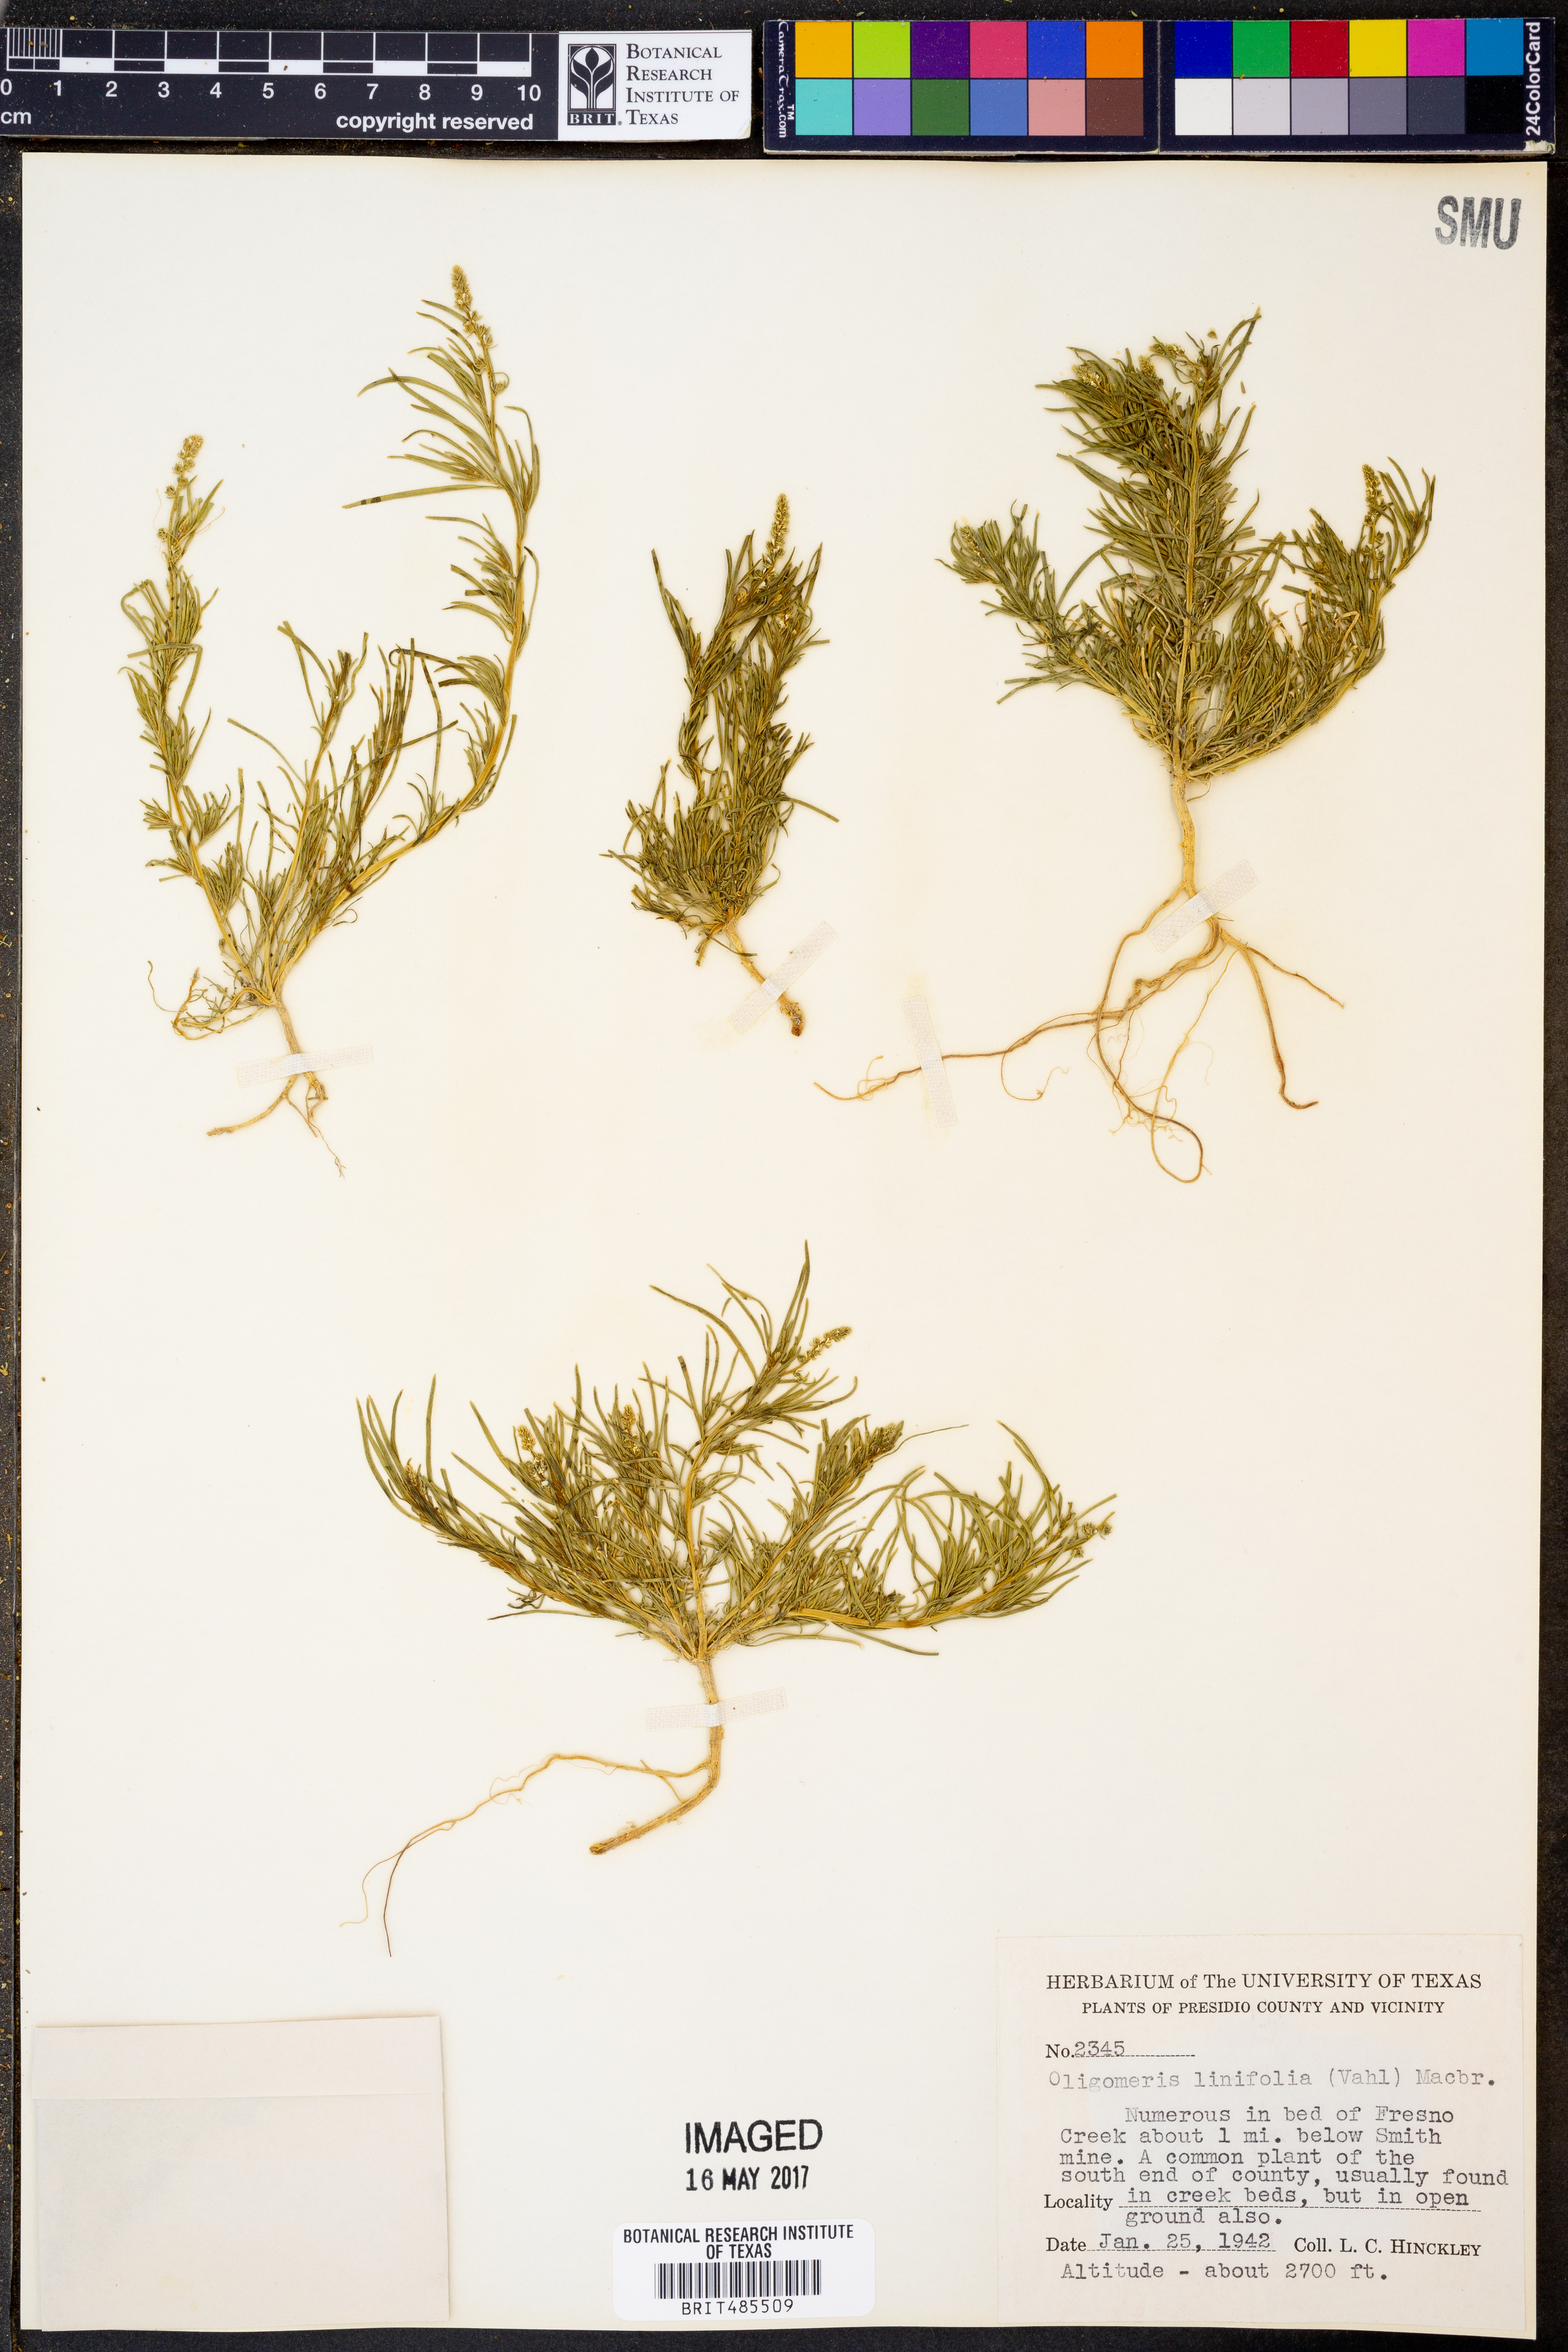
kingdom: Plantae
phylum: Tracheophyta
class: Magnoliopsida
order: Brassicales
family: Resedaceae
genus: Oligomeris
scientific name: Oligomeris linifolia
